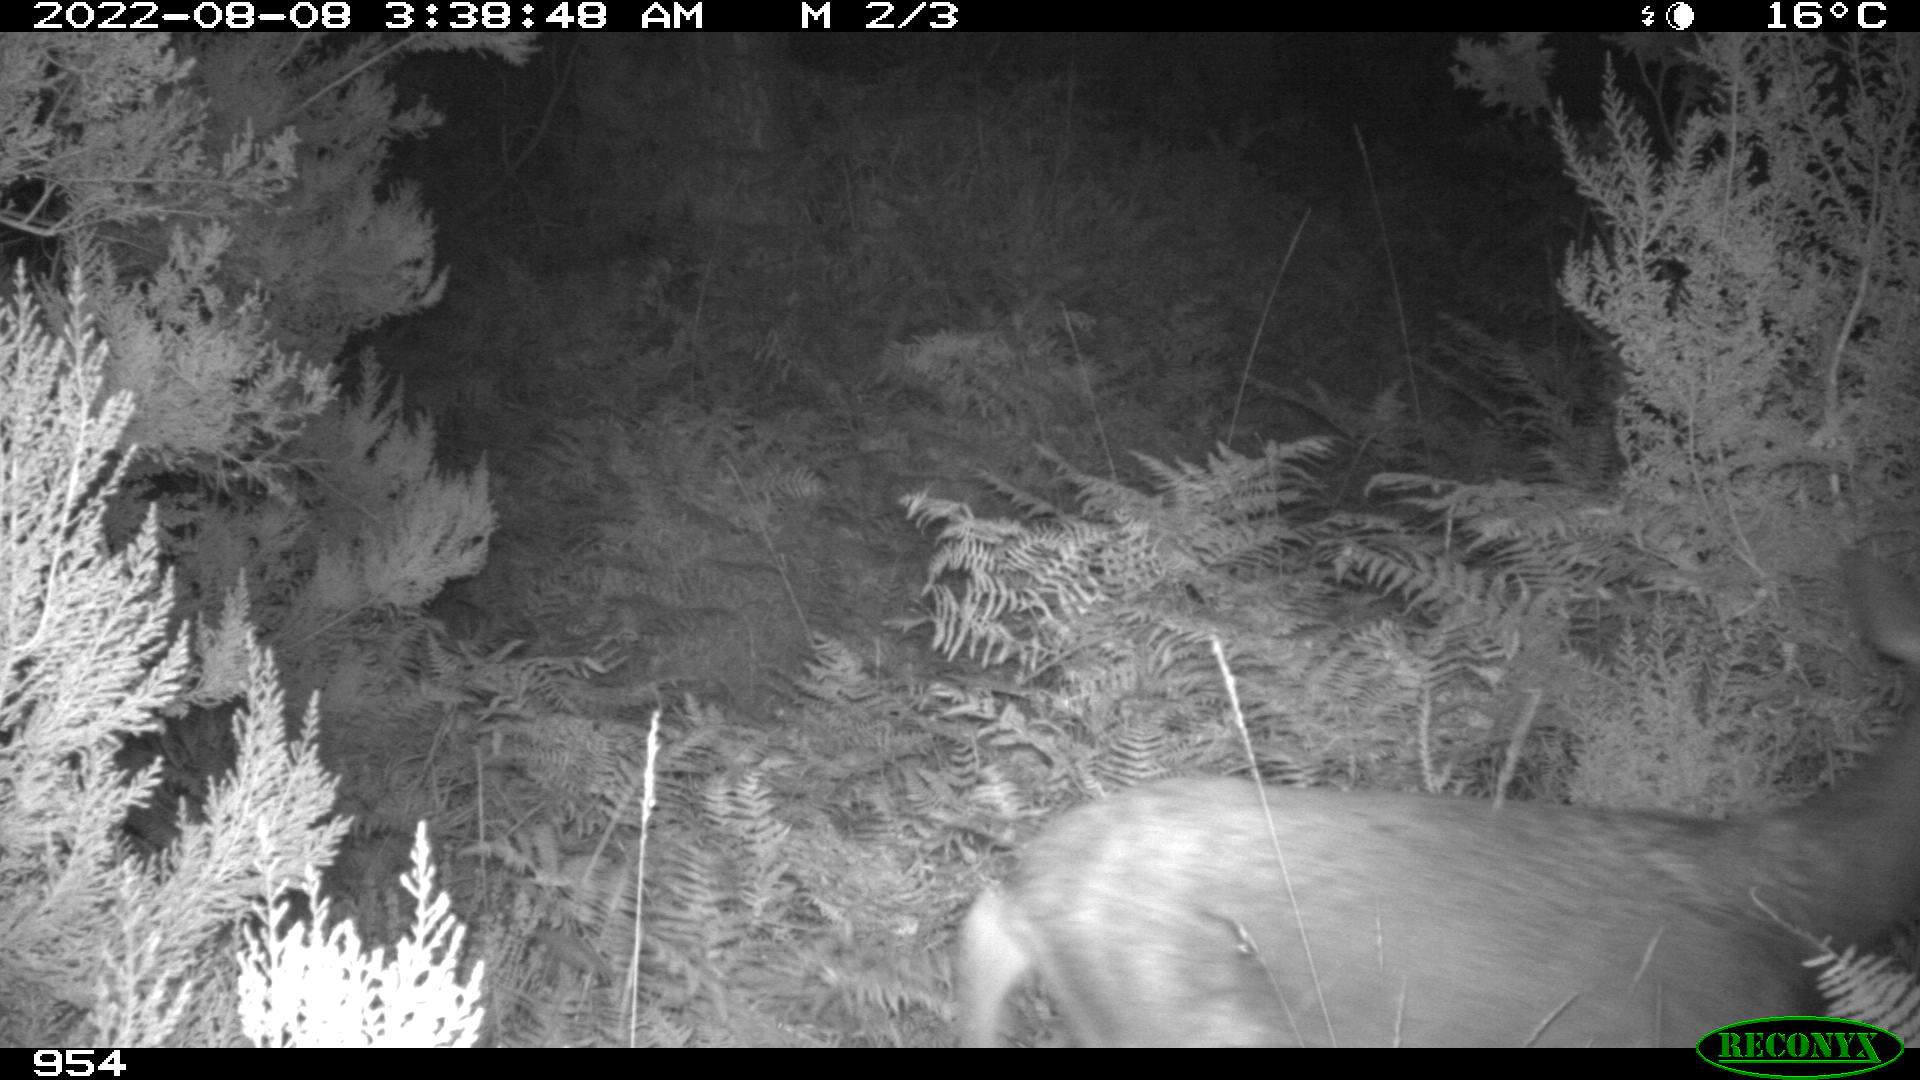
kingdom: Animalia
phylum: Chordata
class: Mammalia
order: Artiodactyla
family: Cervidae
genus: Capreolus
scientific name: Capreolus capreolus
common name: Western roe deer
